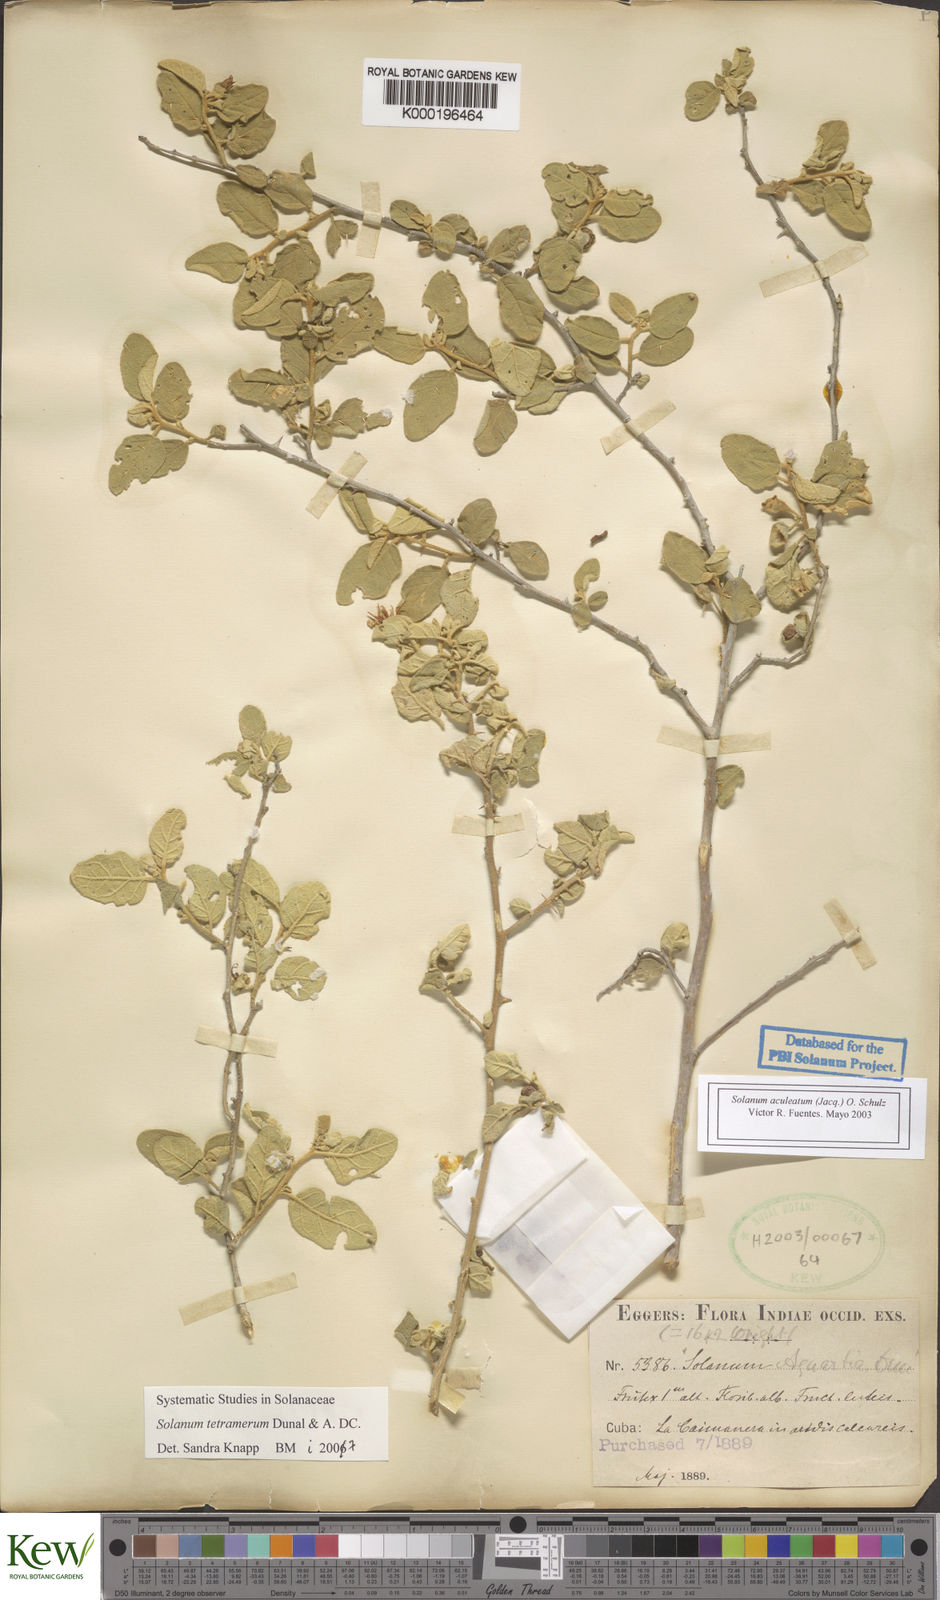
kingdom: Plantae
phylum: Tracheophyta
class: Magnoliopsida
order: Solanales
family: Solanaceae
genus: Solanum
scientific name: Solanum tetramerum
